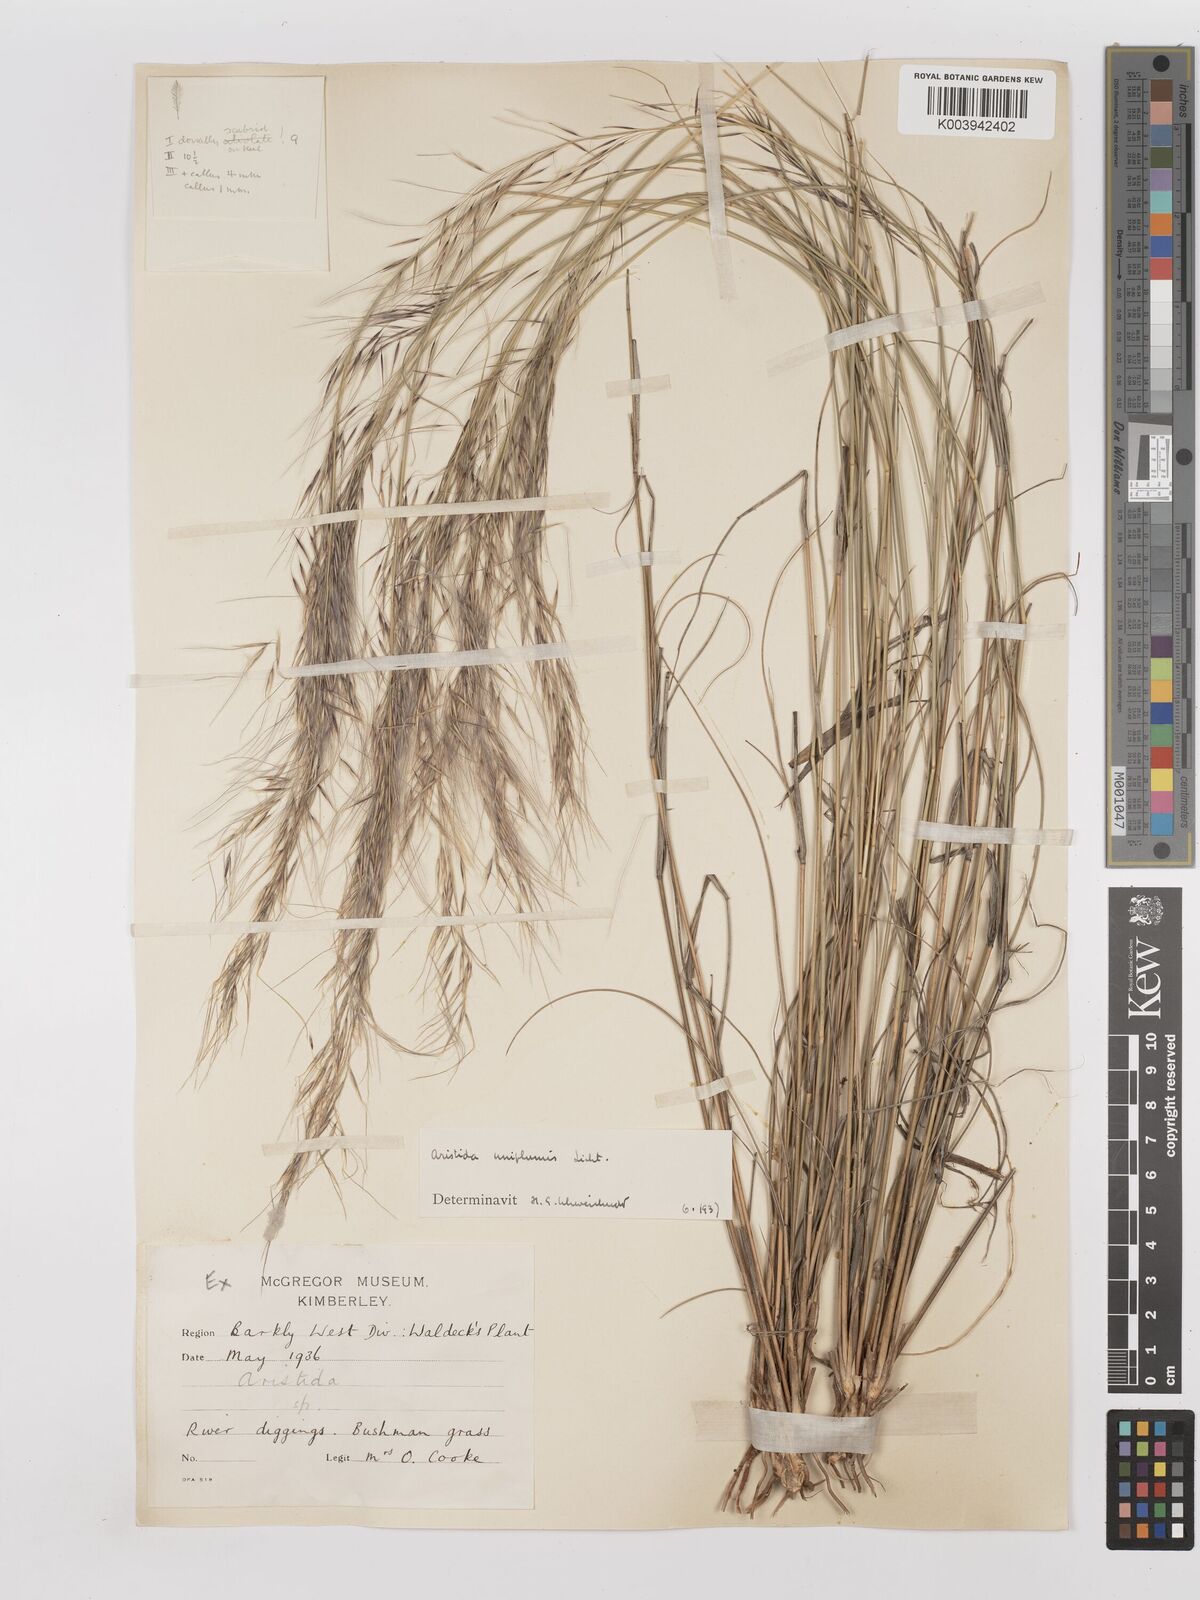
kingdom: Plantae
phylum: Tracheophyta
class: Liliopsida
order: Poales
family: Poaceae
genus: Stipagrostis
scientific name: Stipagrostis uniplumis
